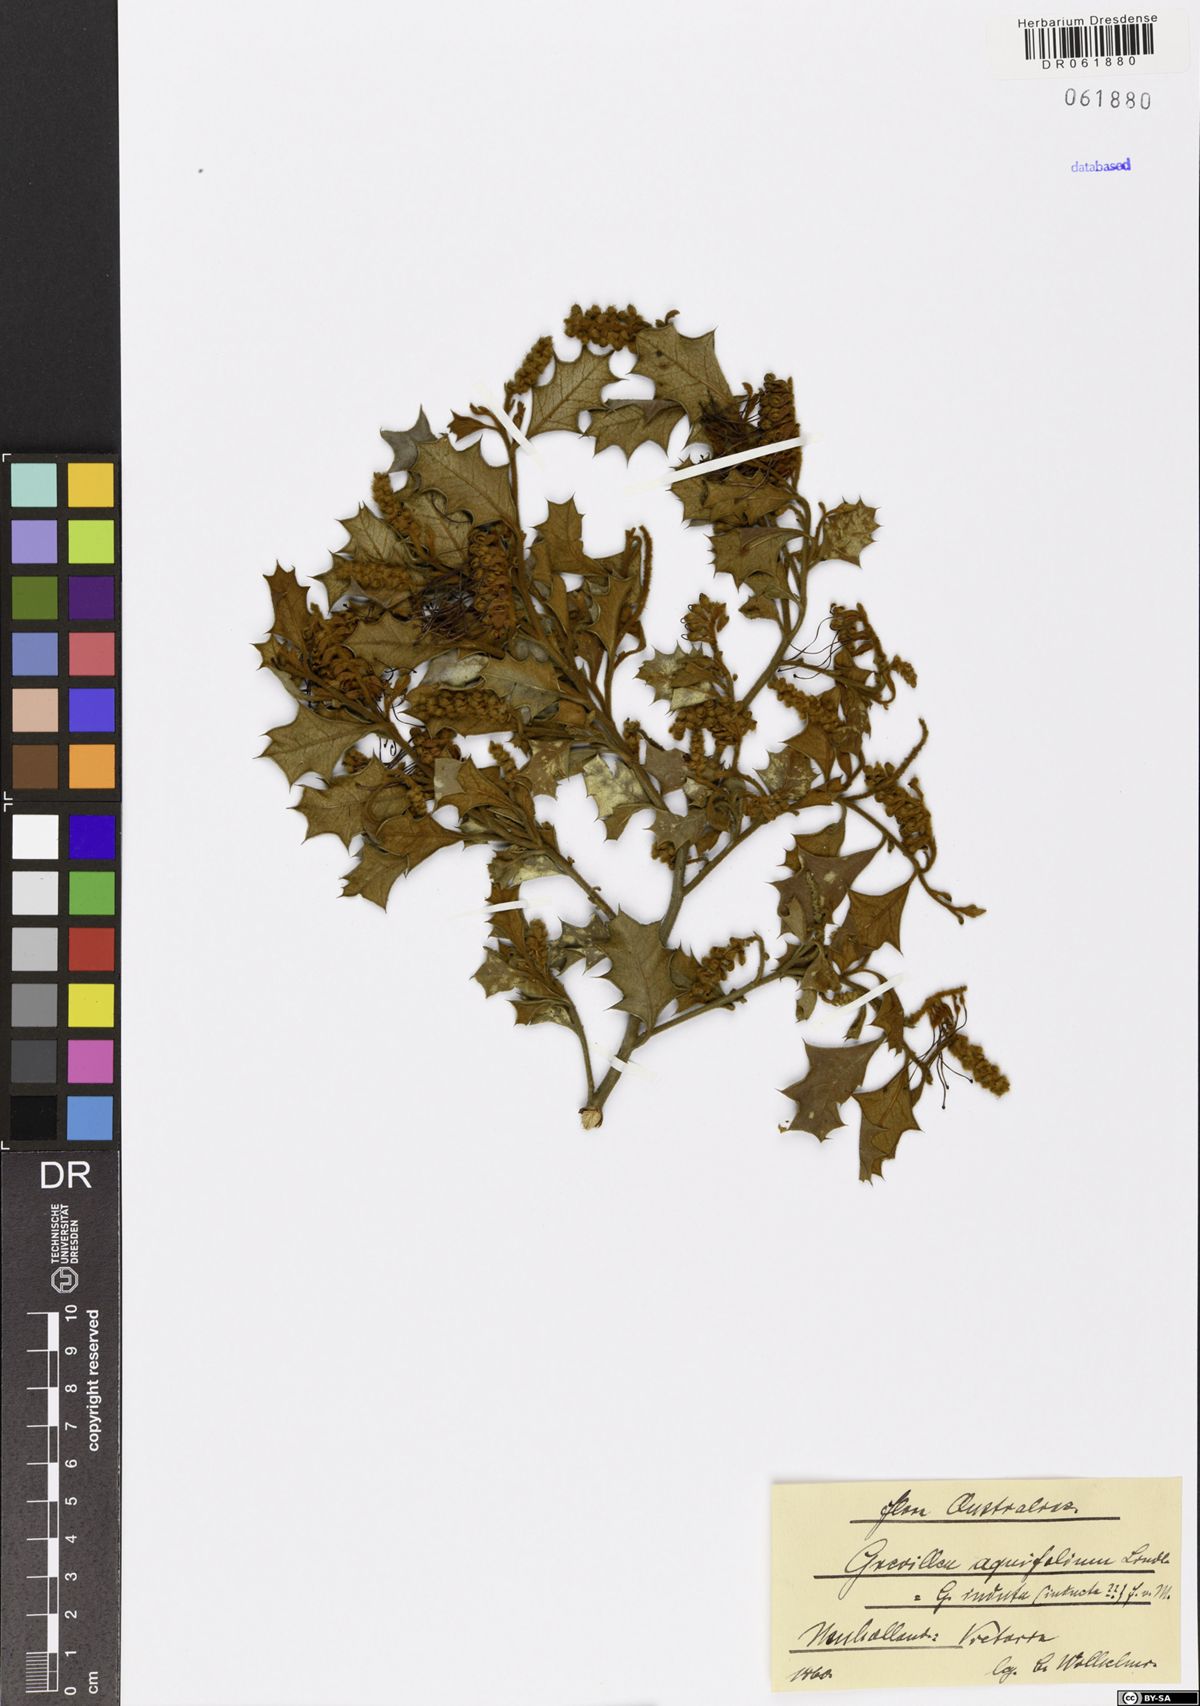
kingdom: Plantae
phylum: Tracheophyta
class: Magnoliopsida
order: Proteales
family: Proteaceae
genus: Grevillea
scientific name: Grevillea aquifolium
